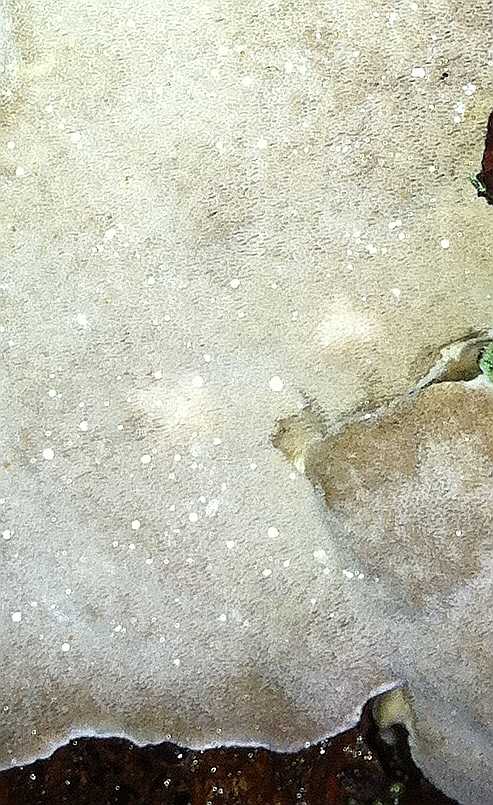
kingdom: Fungi
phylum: Basidiomycota
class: Agaricomycetes
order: Polyporales
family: Gelatoporiaceae
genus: Cinereomyces
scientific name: Cinereomyces lindbladii
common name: almindelig gråporesvamp
